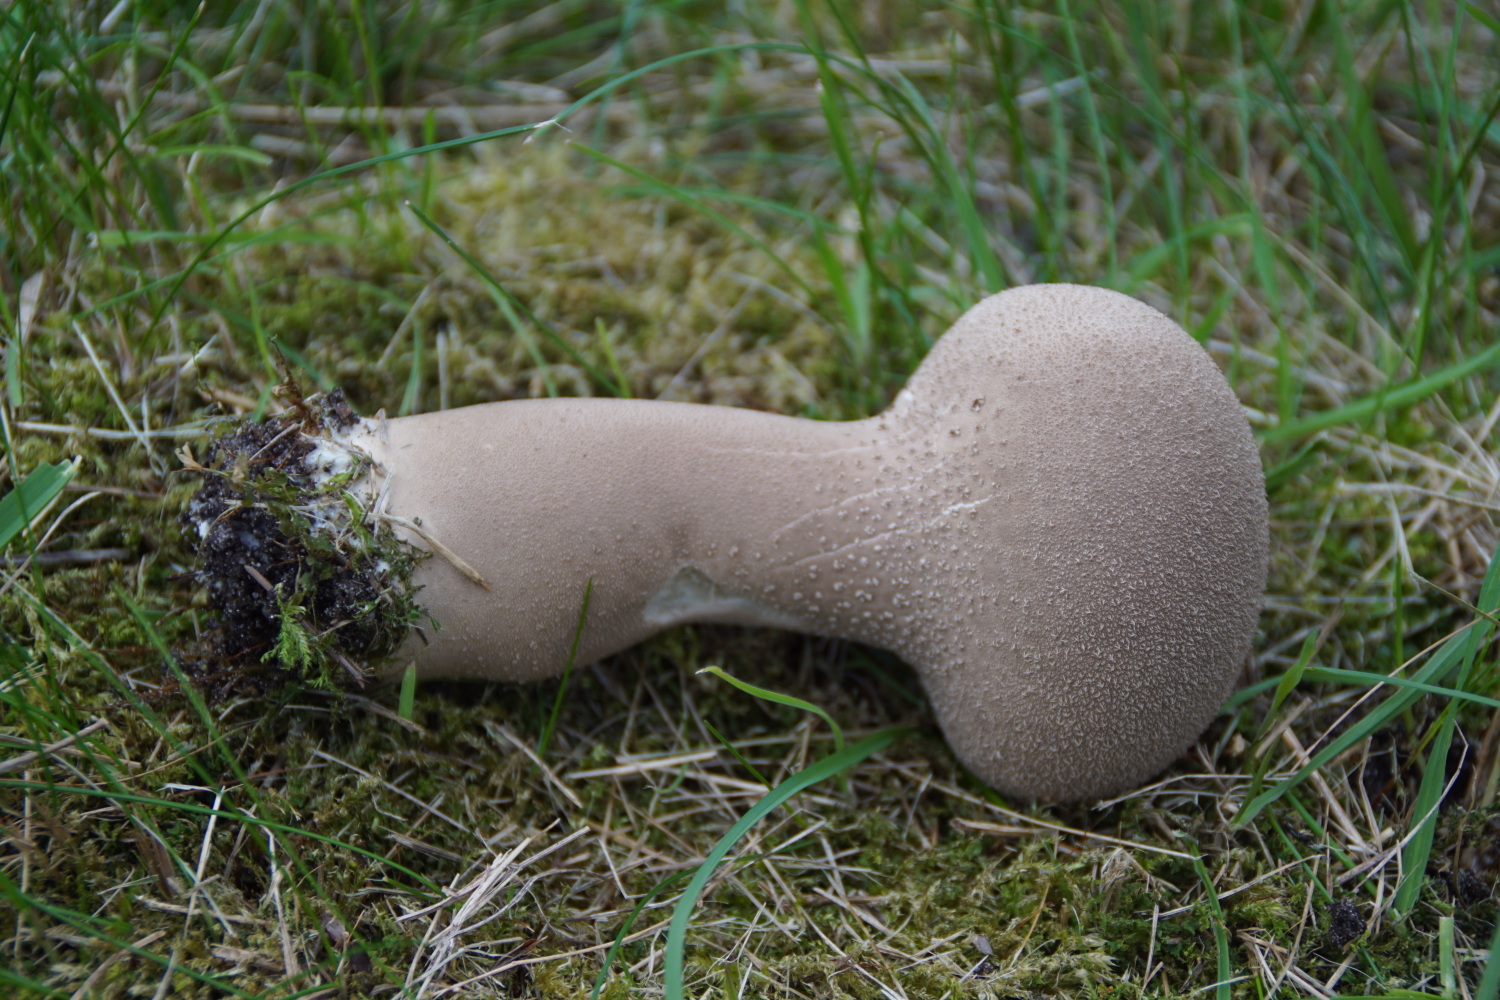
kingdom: Fungi
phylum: Basidiomycota
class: Agaricomycetes
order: Agaricales
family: Lycoperdaceae
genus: Lycoperdon
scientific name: Lycoperdon excipuliforme
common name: højstokket støvbold
